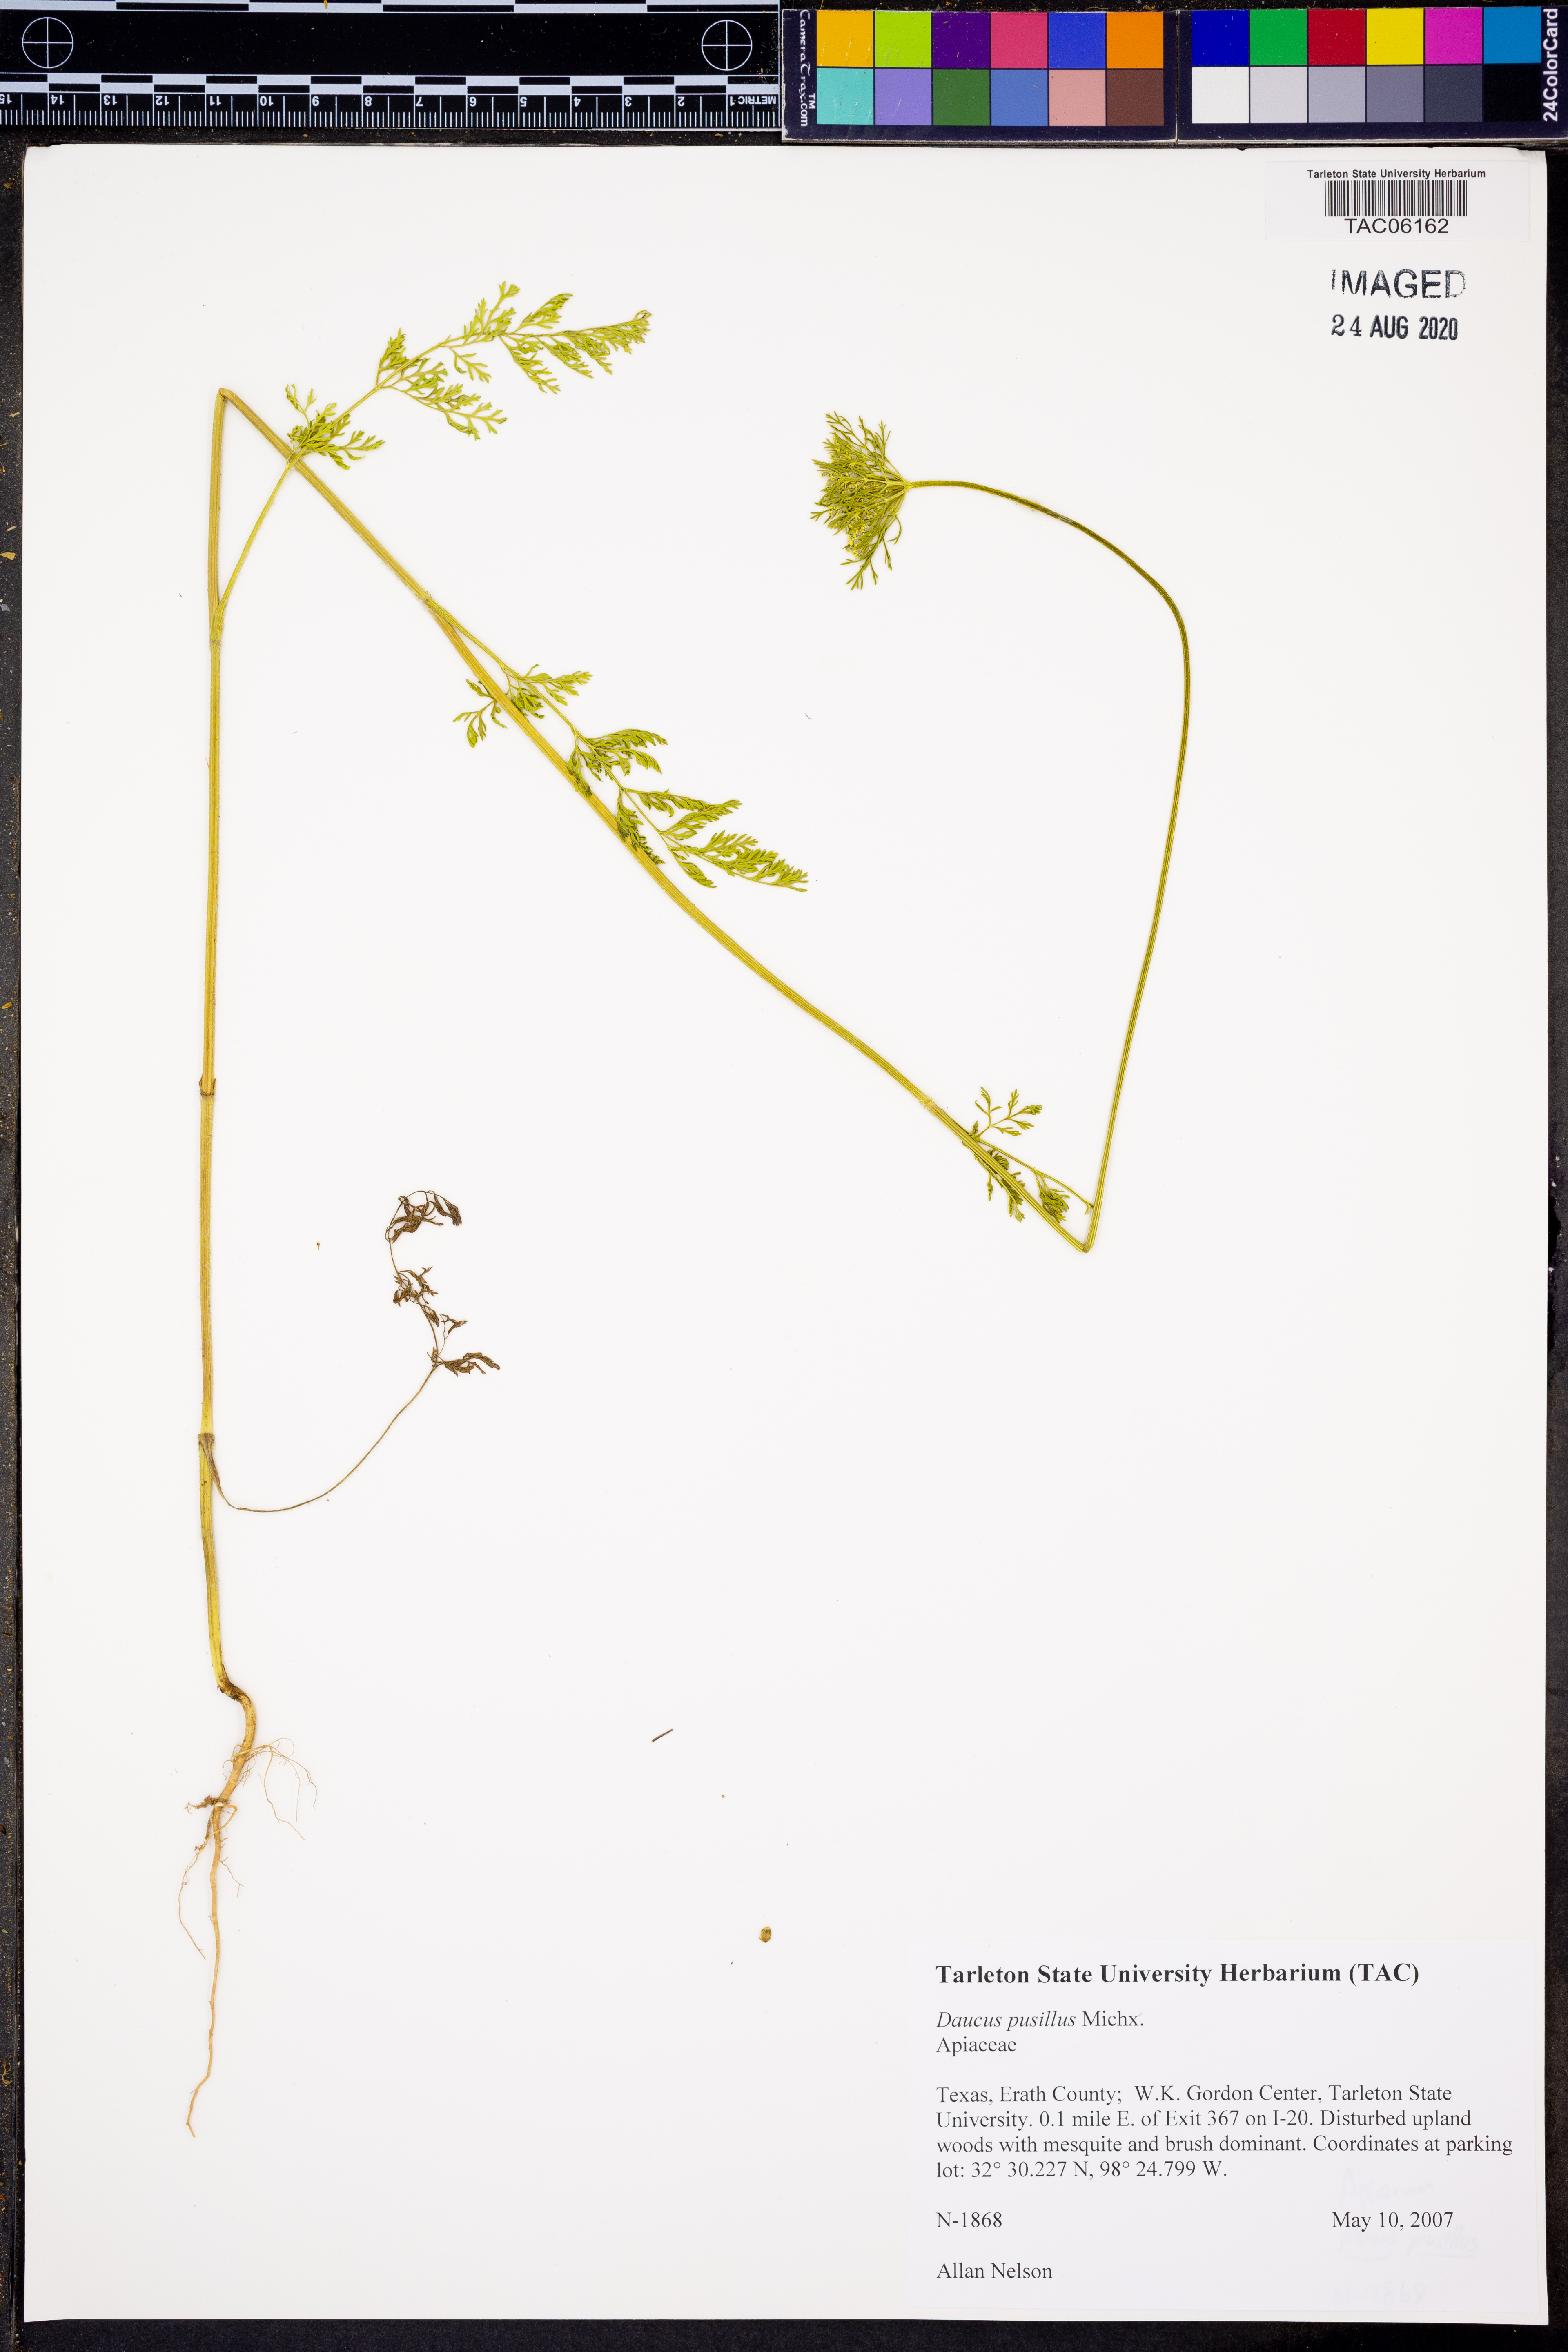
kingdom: Plantae
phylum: Tracheophyta
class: Magnoliopsida
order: Apiales
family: Apiaceae
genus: Daucus
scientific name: Daucus pusillus
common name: Southwest wild carrot
